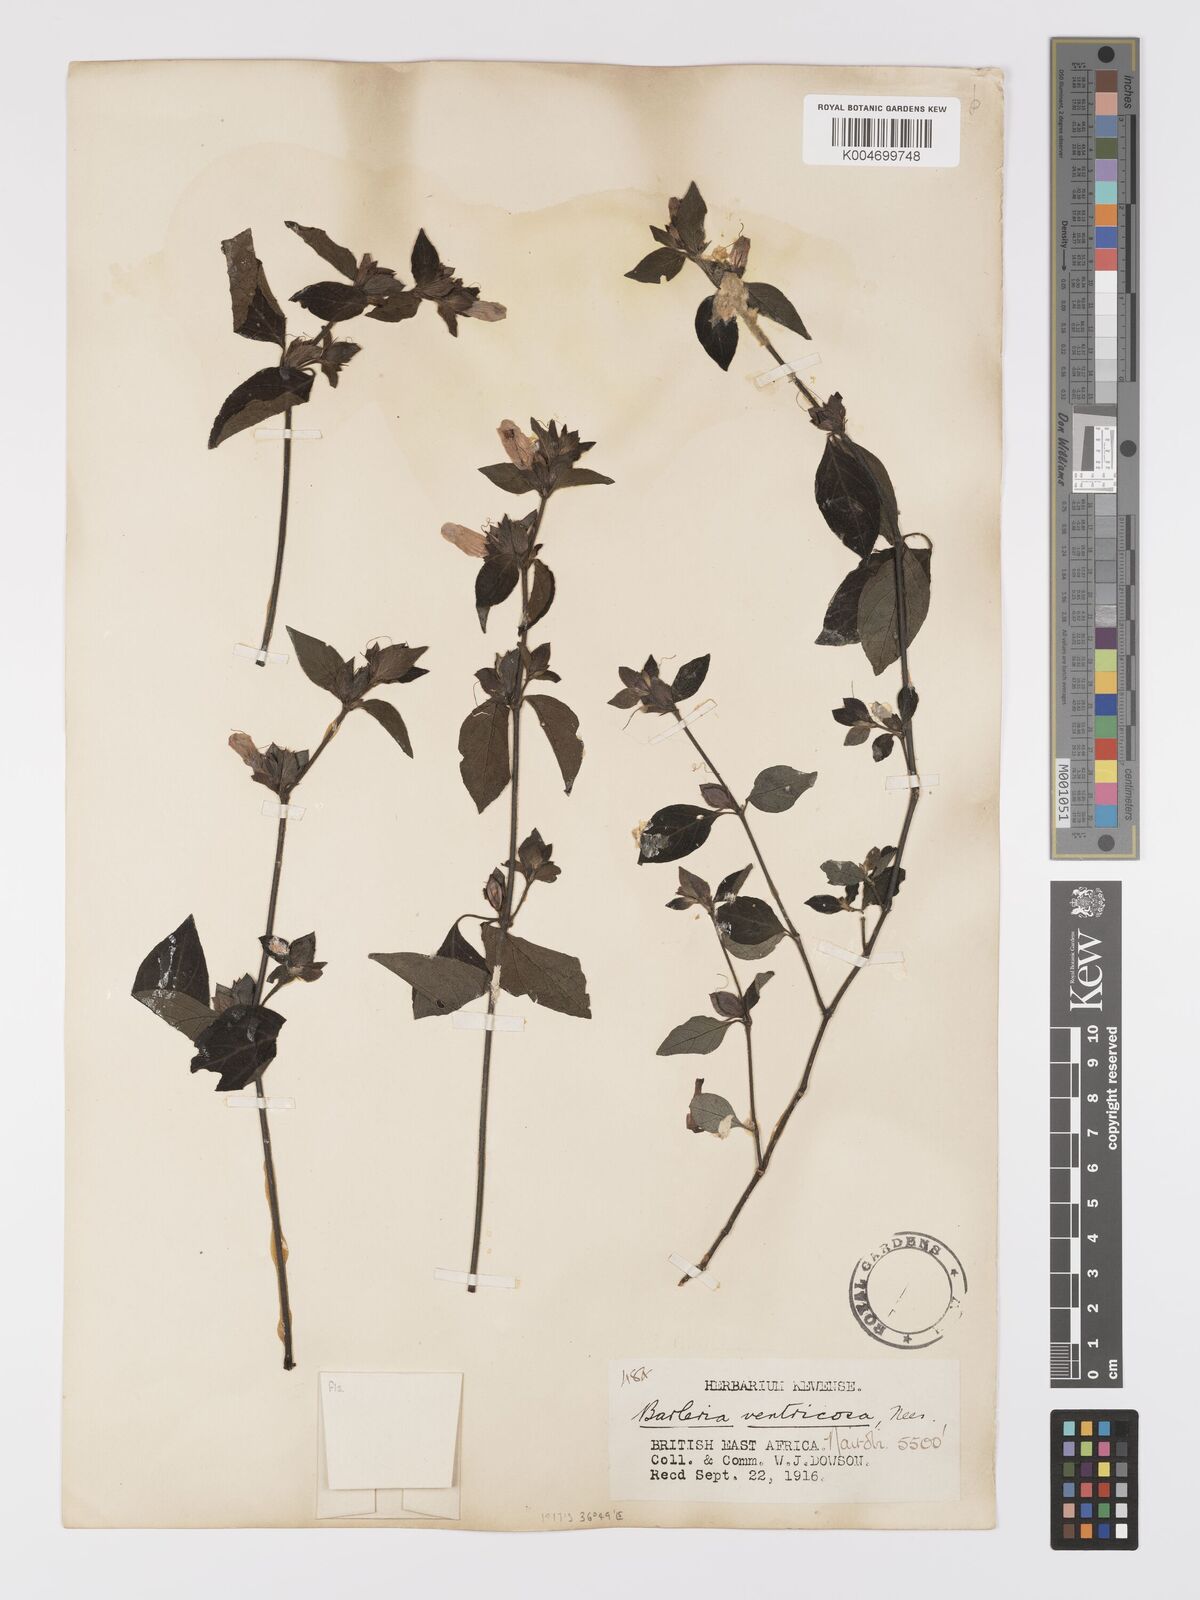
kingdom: Plantae
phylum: Tracheophyta
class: Magnoliopsida
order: Lamiales
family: Acanthaceae
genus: Barleria
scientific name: Barleria ventricosa
